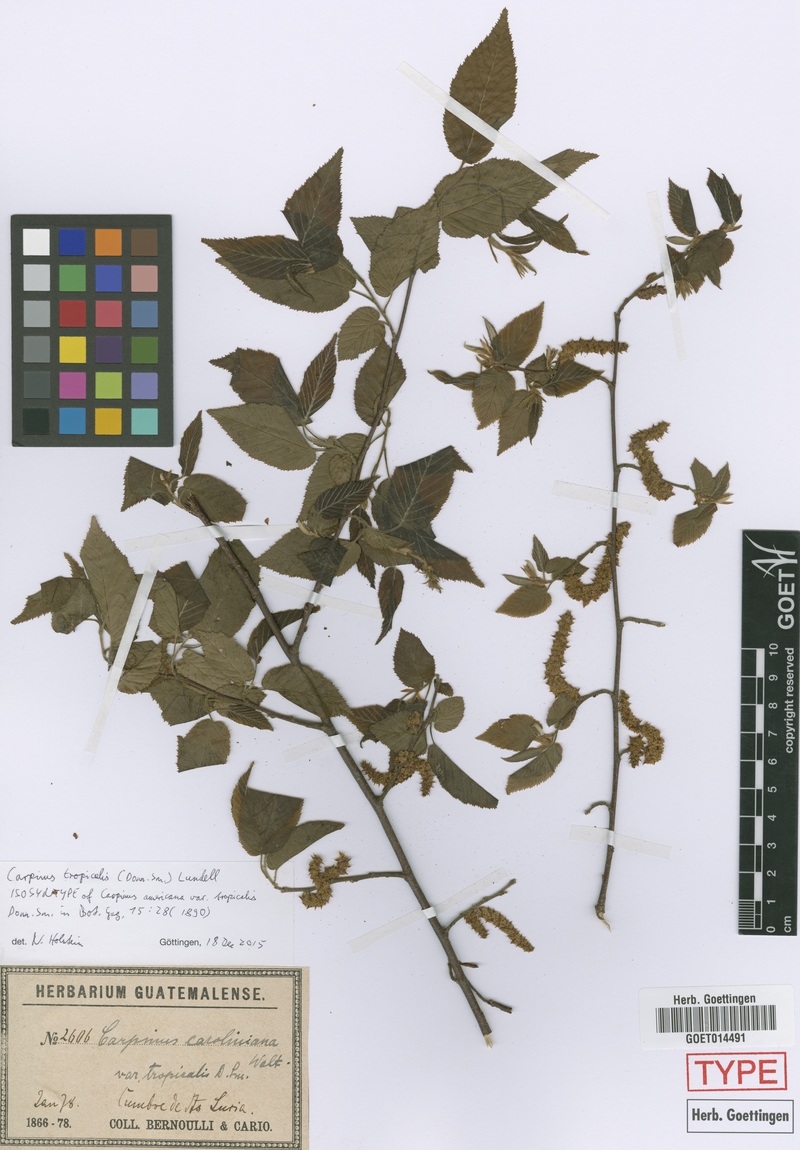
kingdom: Plantae
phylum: Tracheophyta
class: Magnoliopsida
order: Fagales
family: Betulaceae
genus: Carpinus
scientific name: Carpinus tropicalis
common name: Hornbeam
